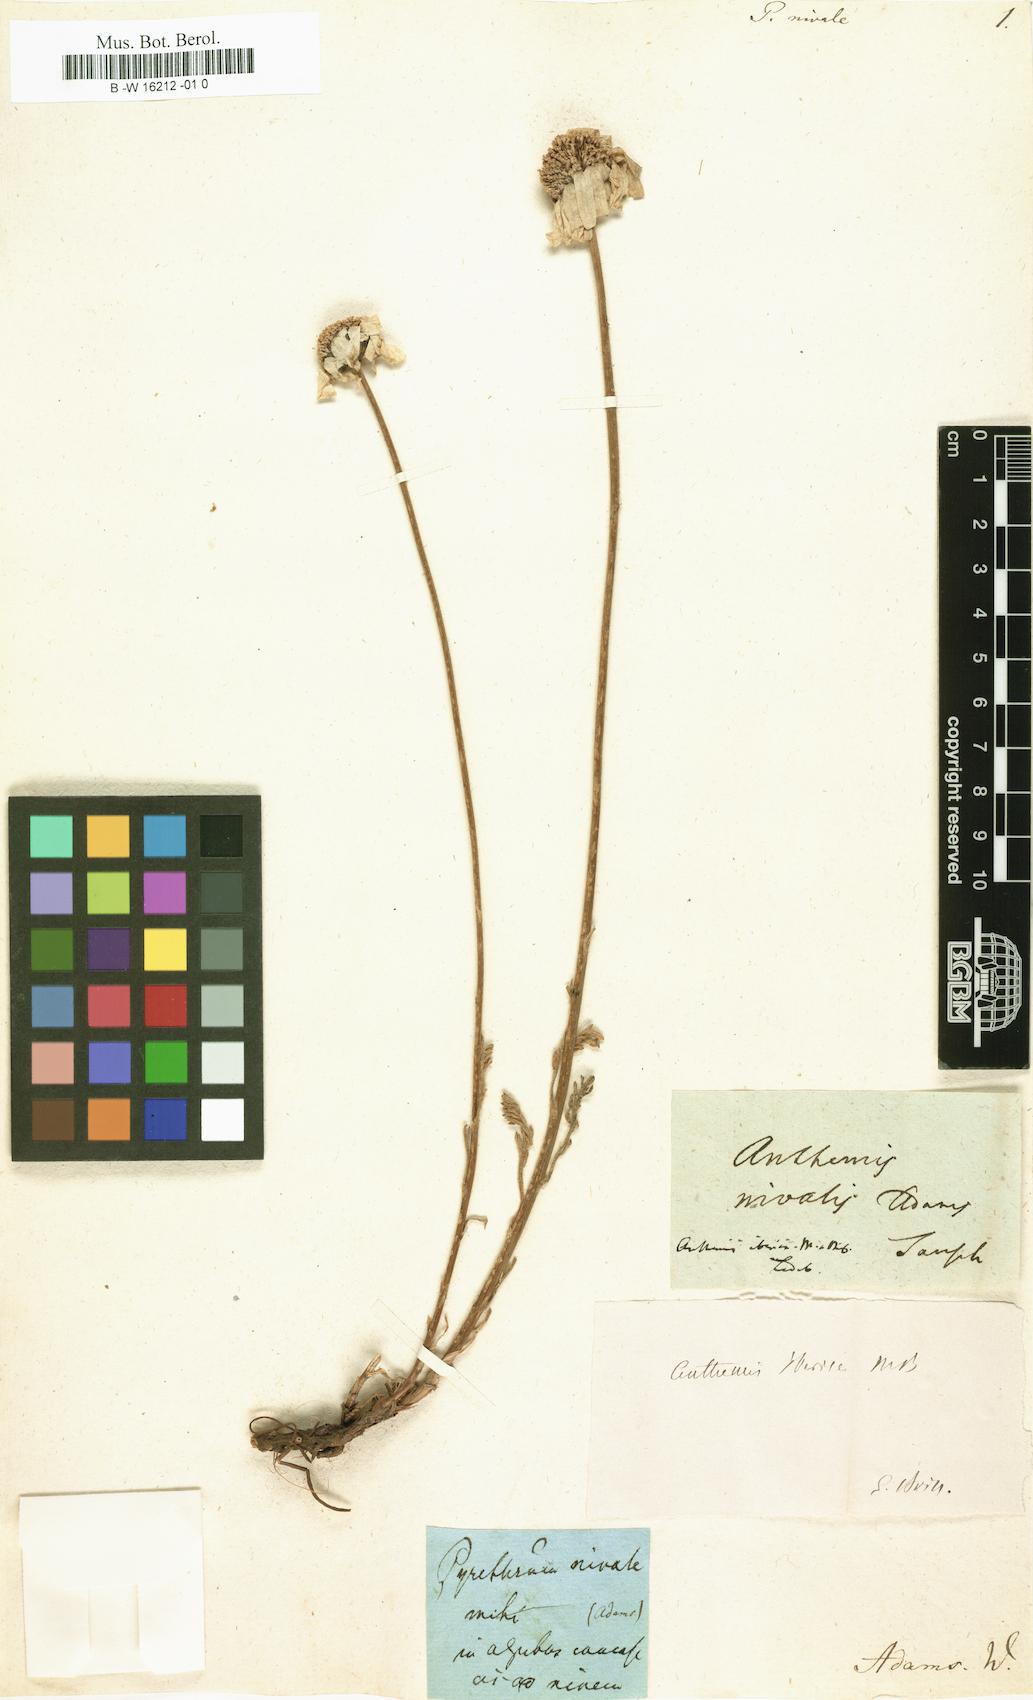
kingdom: Plantae
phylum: Tracheophyta
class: Magnoliopsida
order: Asterales
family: Asteraceae
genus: Tanacetum
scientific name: Tanacetum Pyrethrum nivale
